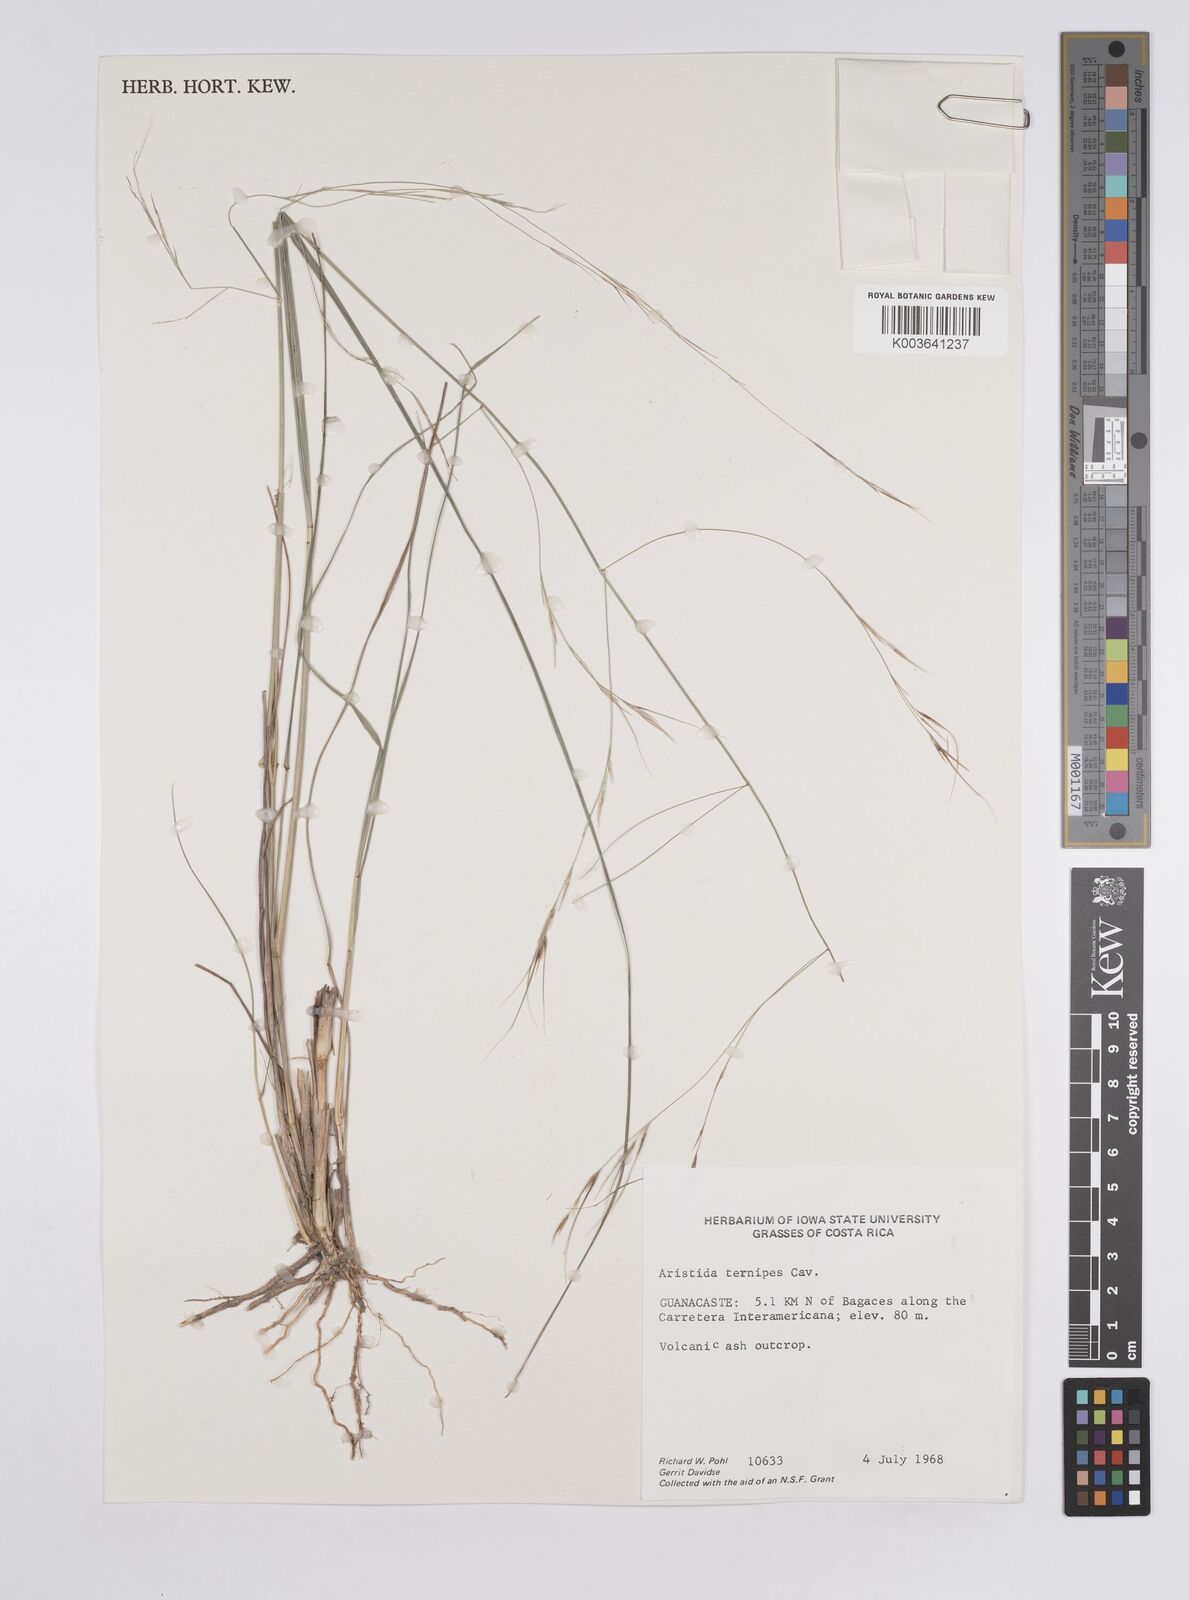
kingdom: Plantae
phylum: Tracheophyta
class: Liliopsida
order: Poales
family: Poaceae
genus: Aristida
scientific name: Aristida
